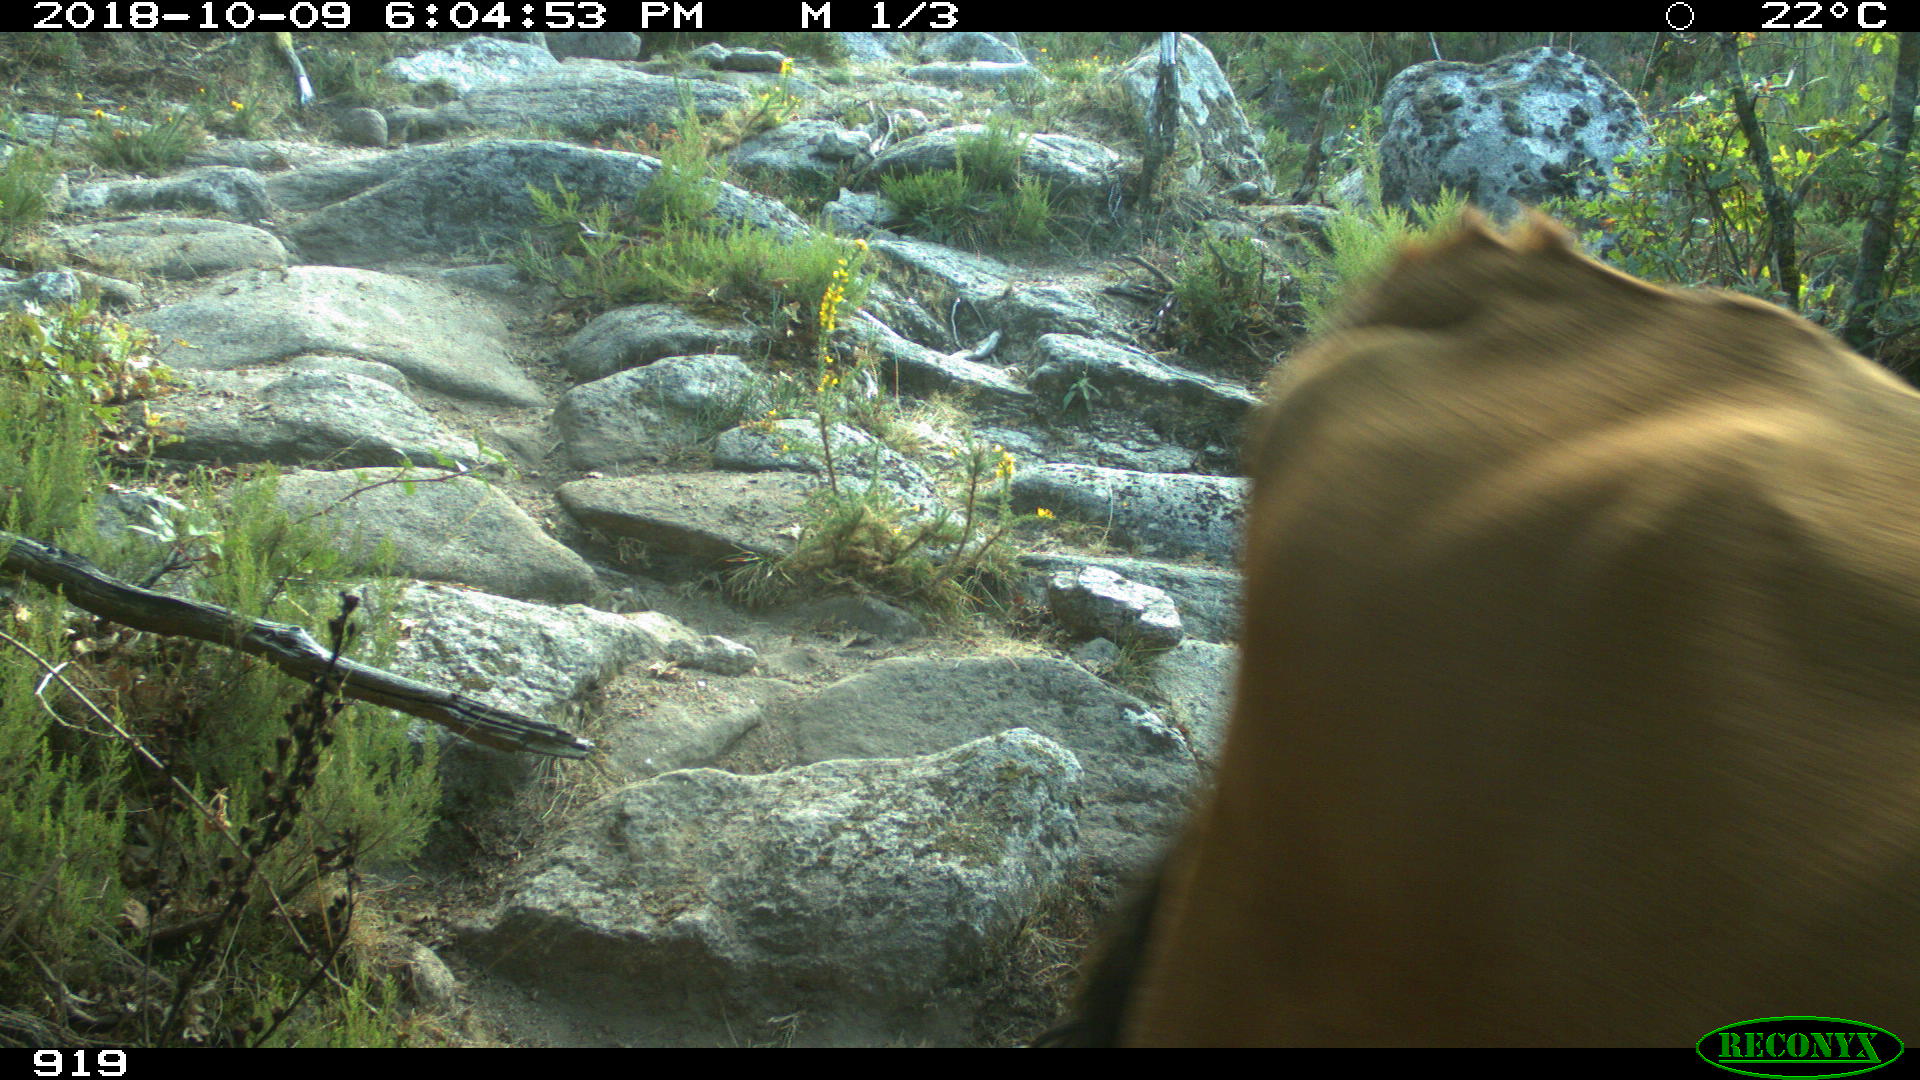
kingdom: Animalia
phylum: Chordata
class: Mammalia
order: Artiodactyla
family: Bovidae
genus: Bos
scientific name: Bos taurus
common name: Domesticated cattle
